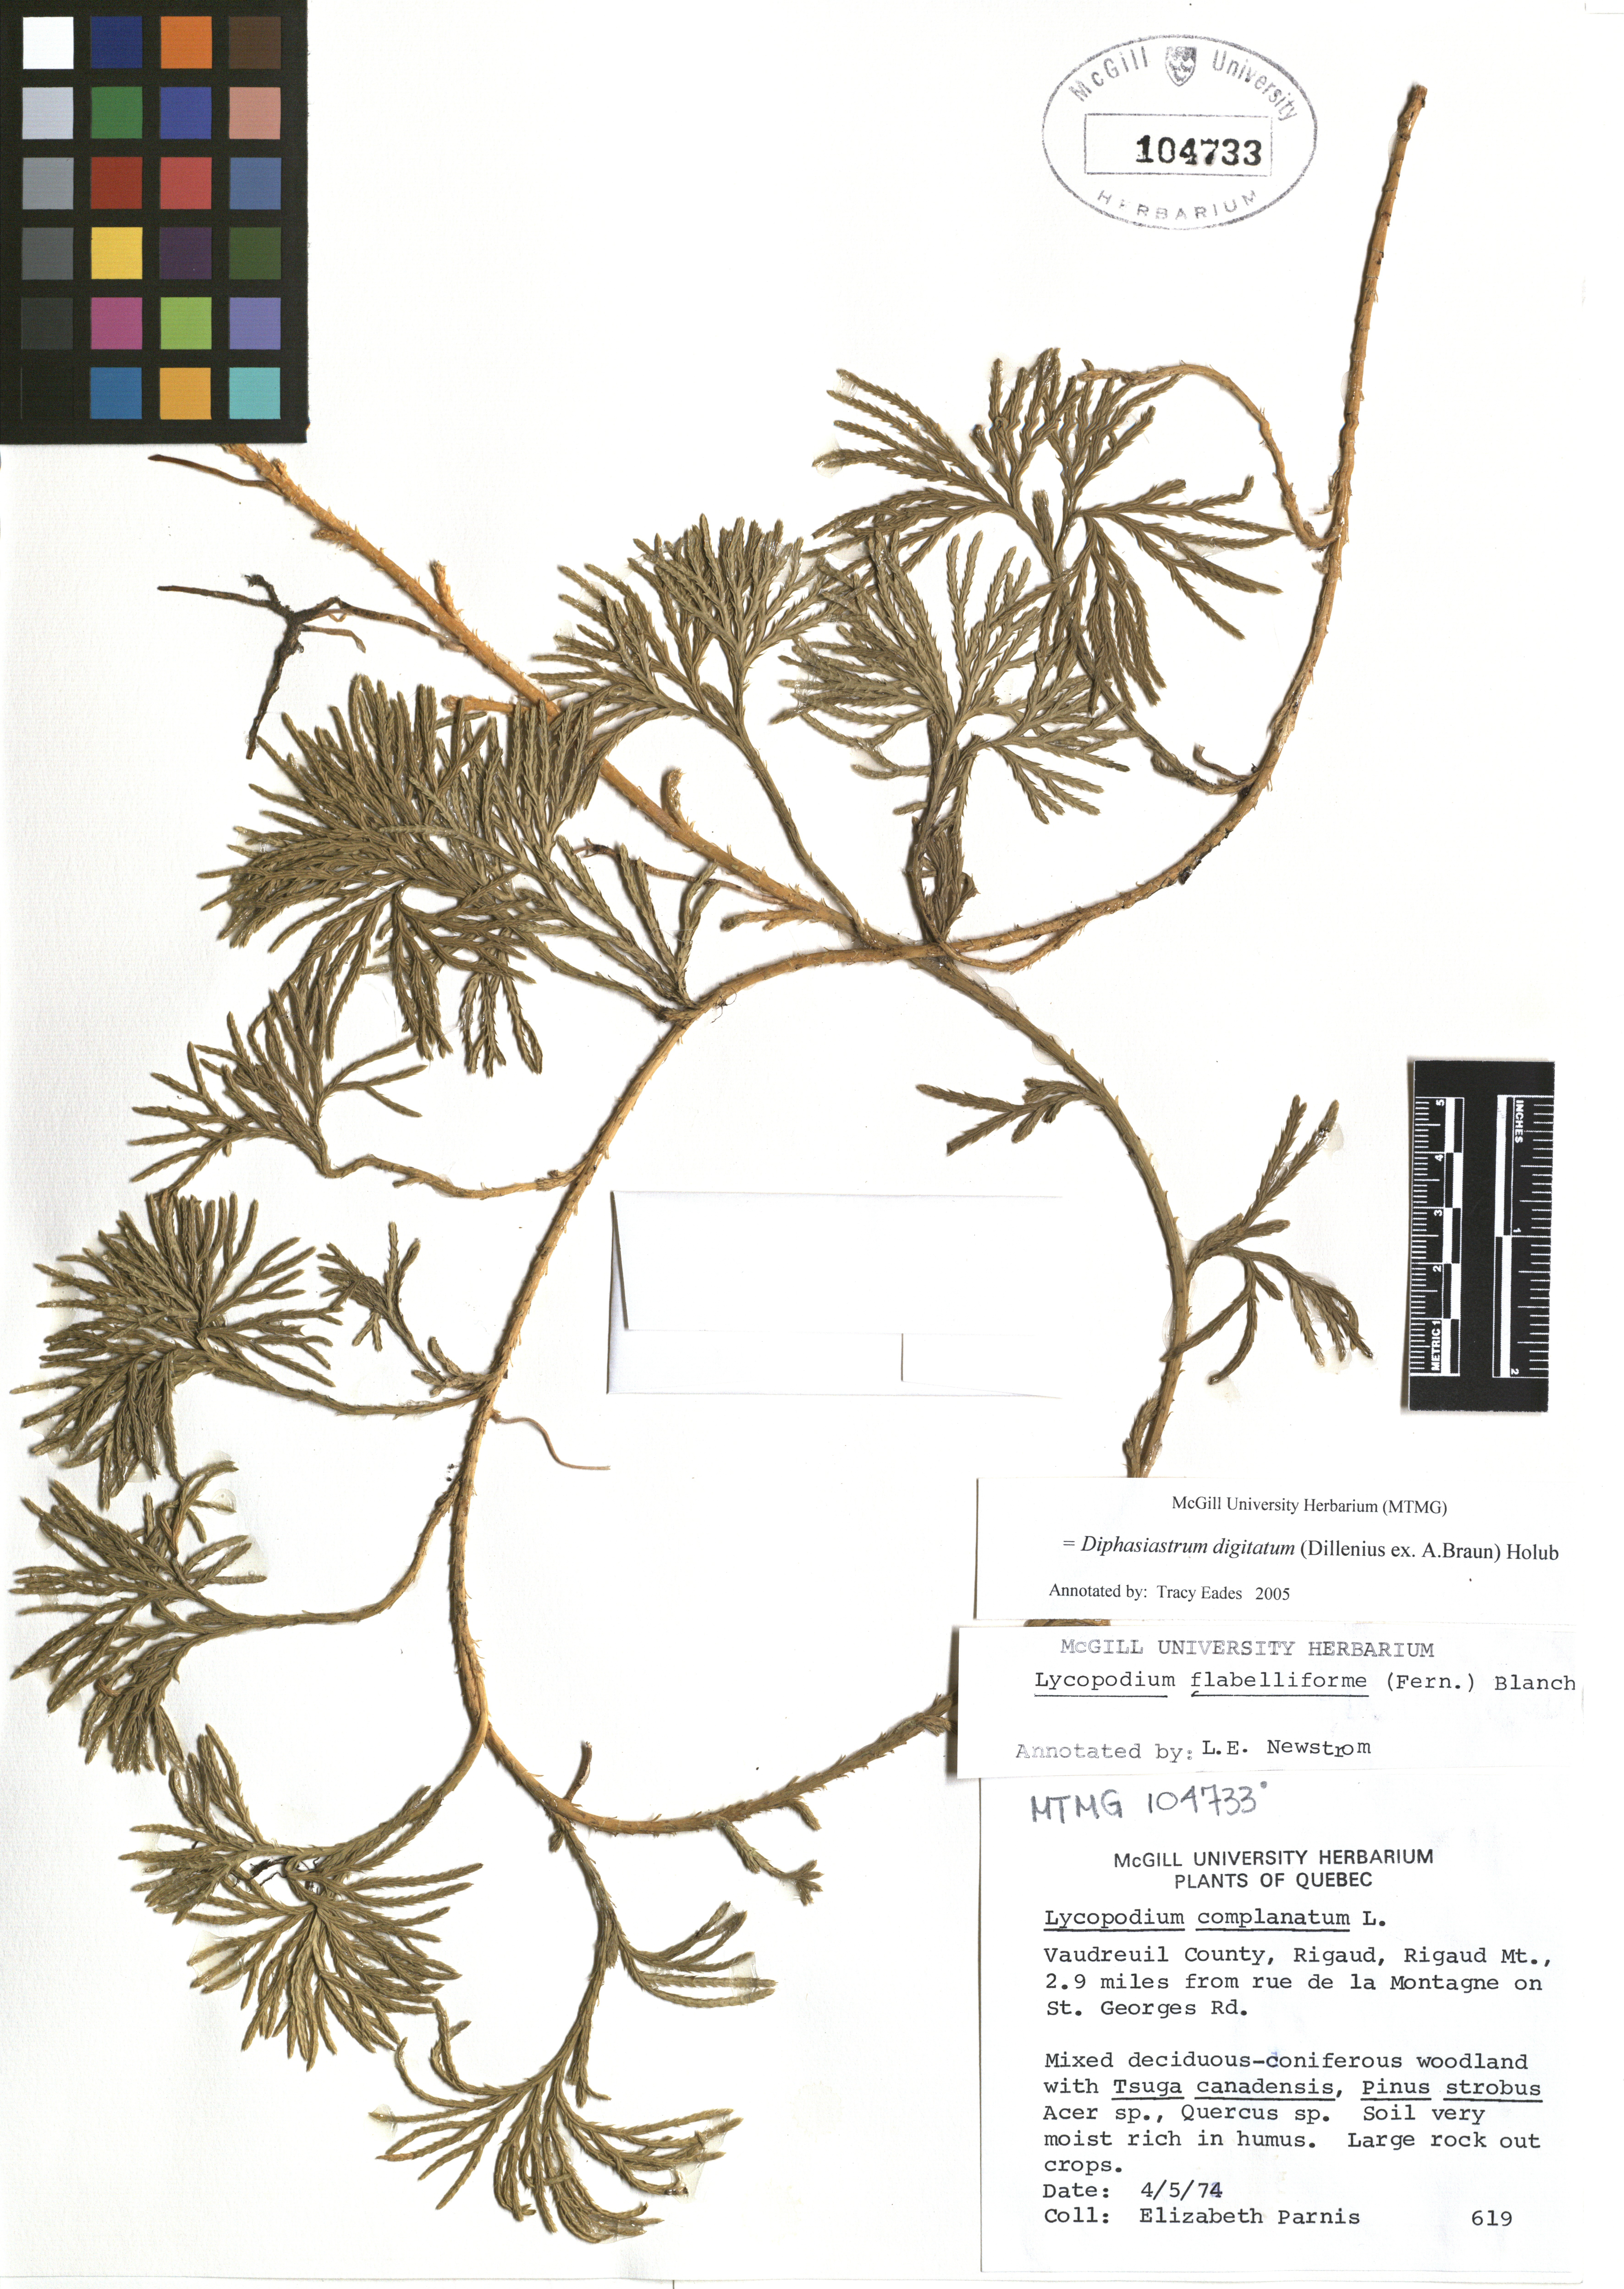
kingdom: Plantae
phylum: Tracheophyta
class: Lycopodiopsida
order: Lycopodiales
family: Lycopodiaceae
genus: Diphasiastrum
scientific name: Diphasiastrum digitatum
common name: Southern running-pine
